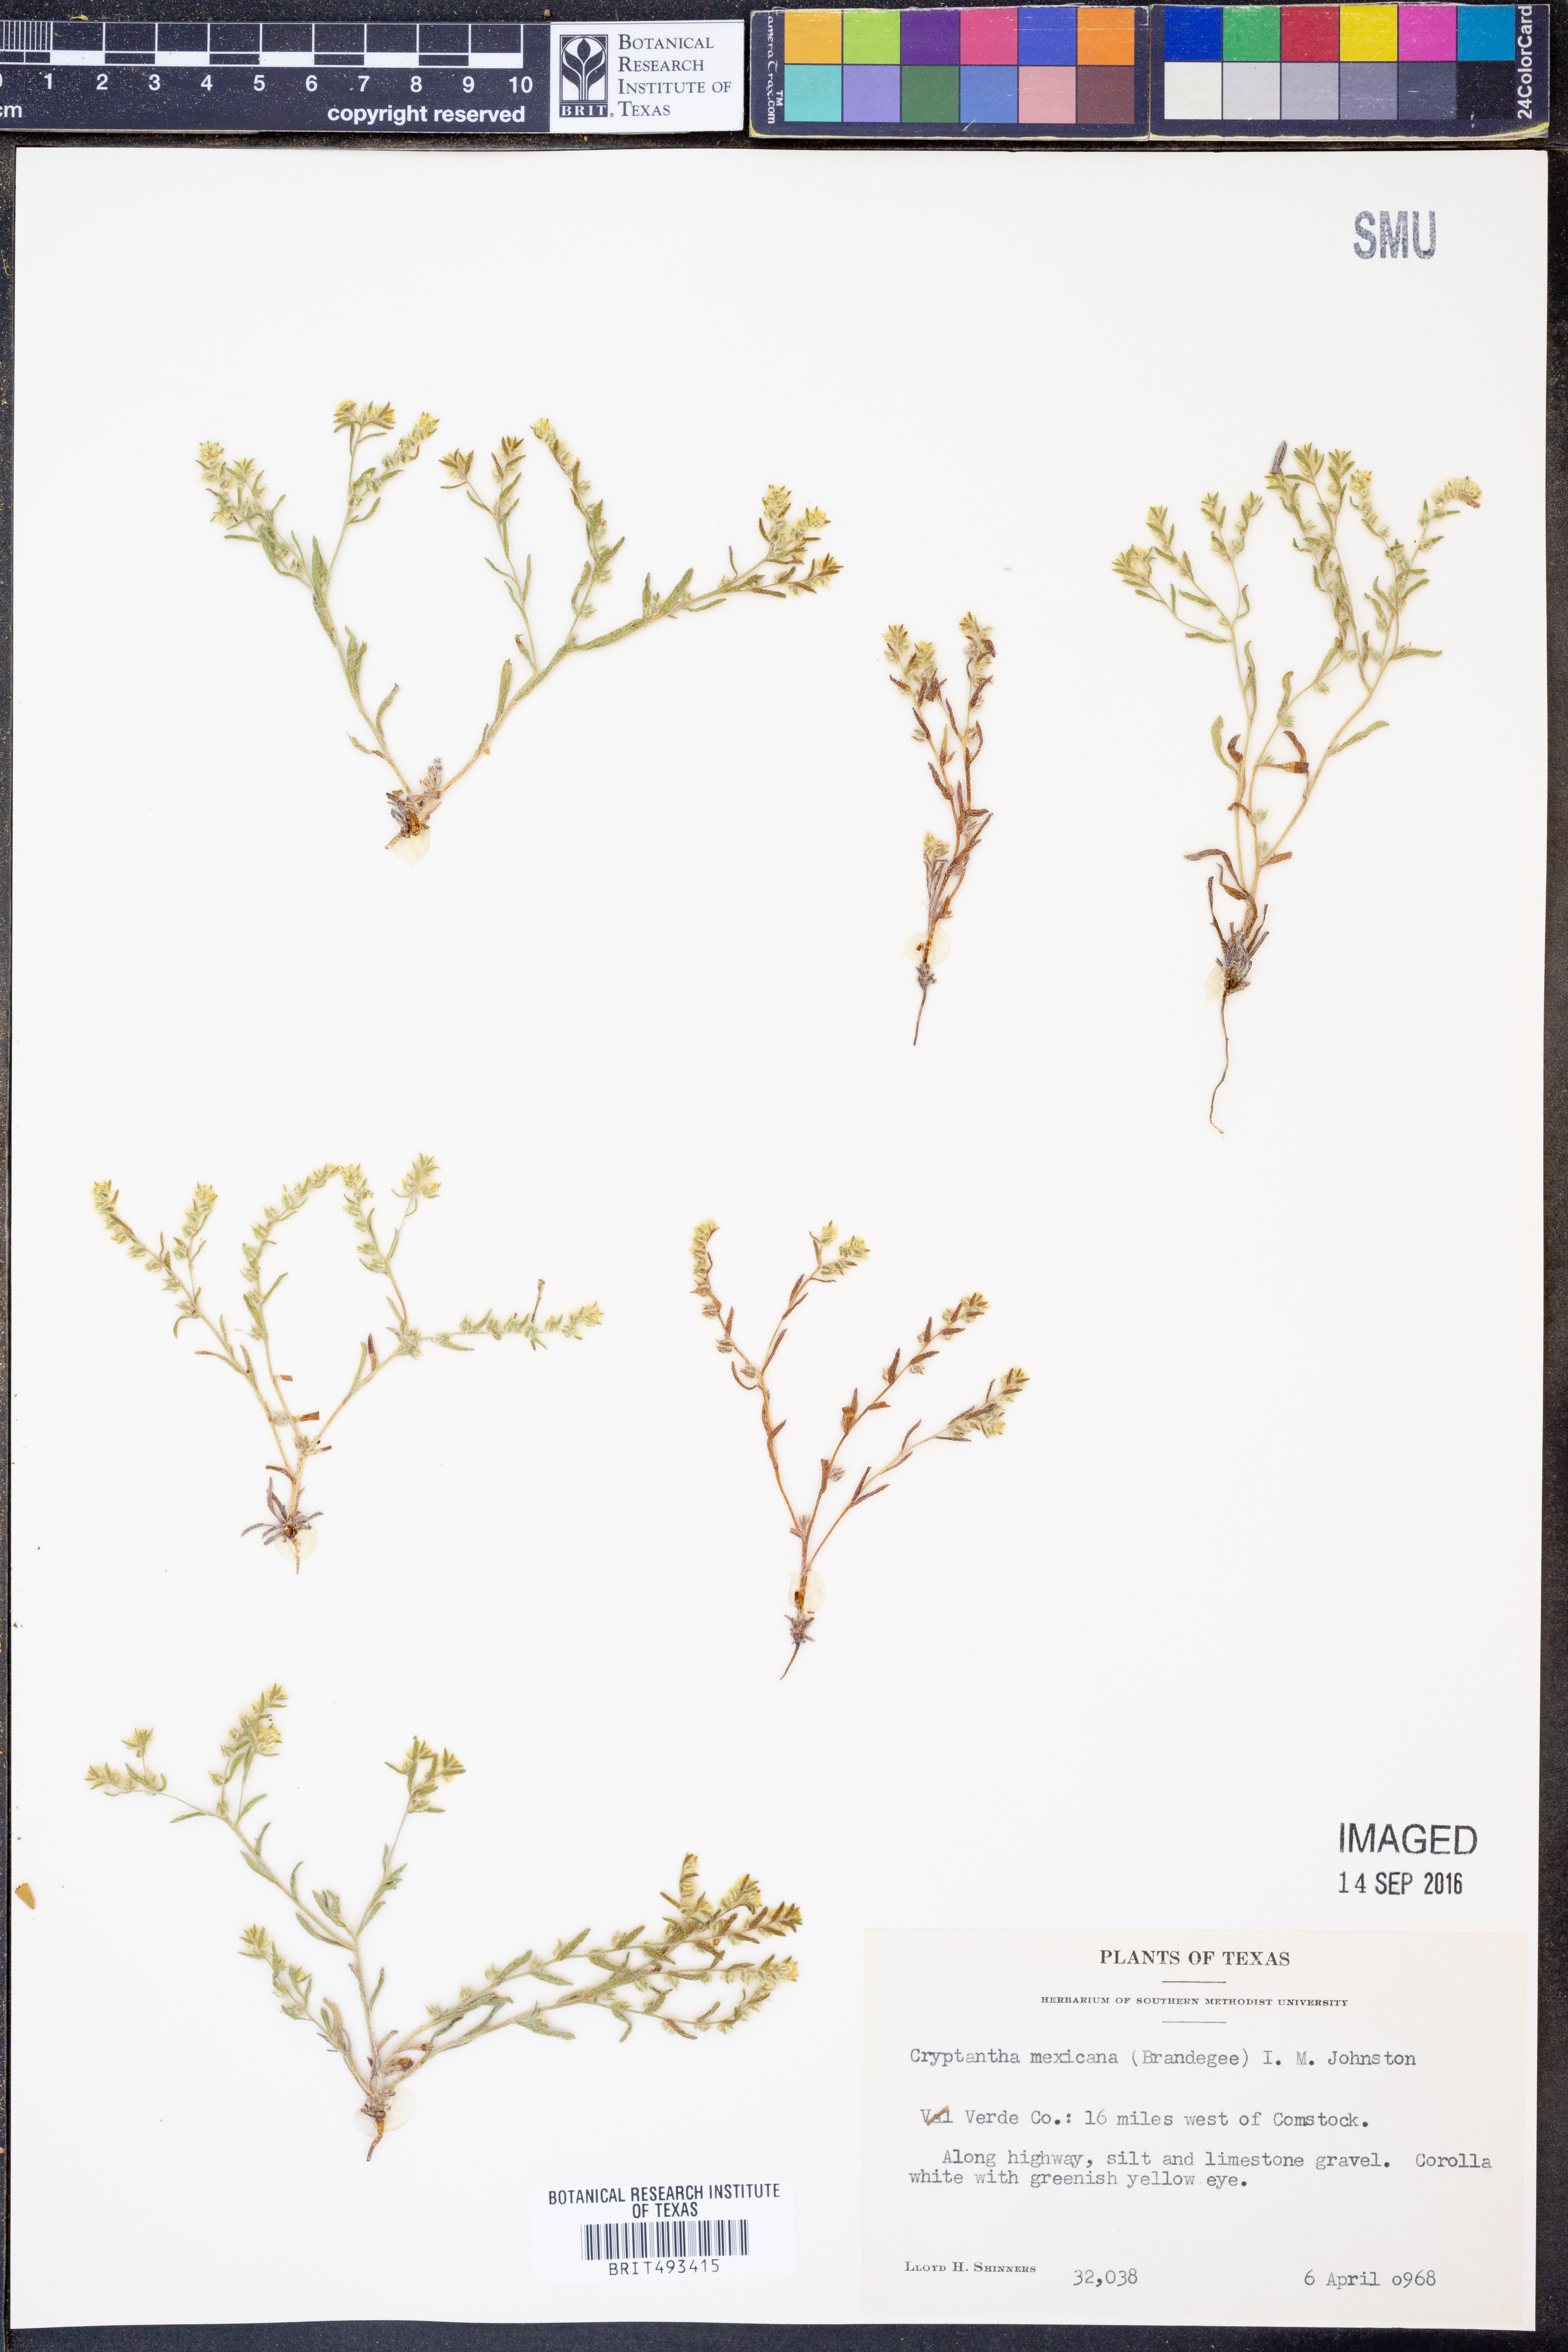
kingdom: Plantae
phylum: Tracheophyta
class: Magnoliopsida
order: Boraginales
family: Boraginaceae
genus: Johnstonella
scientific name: Johnstonella mexicana
